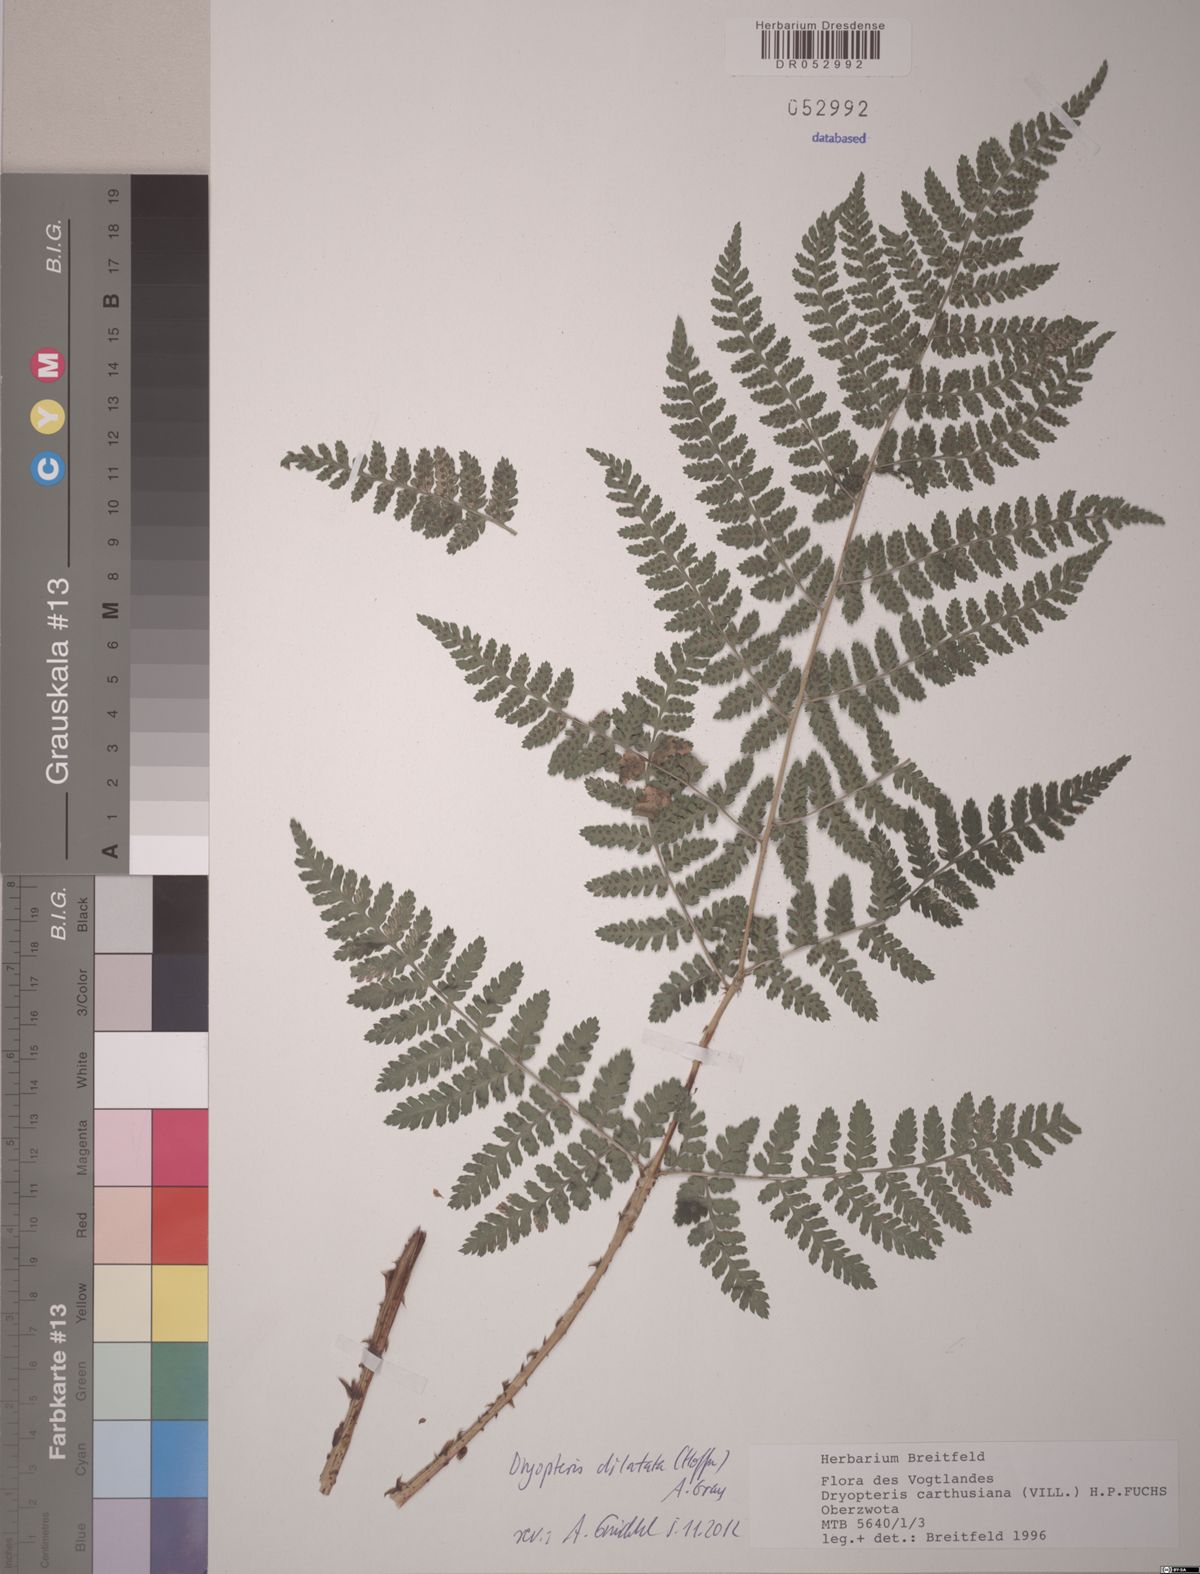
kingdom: Plantae
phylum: Tracheophyta
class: Polypodiopsida
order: Polypodiales
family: Dryopteridaceae
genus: Dryopteris
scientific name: Dryopteris dilatata
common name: Broad buckler-fern
